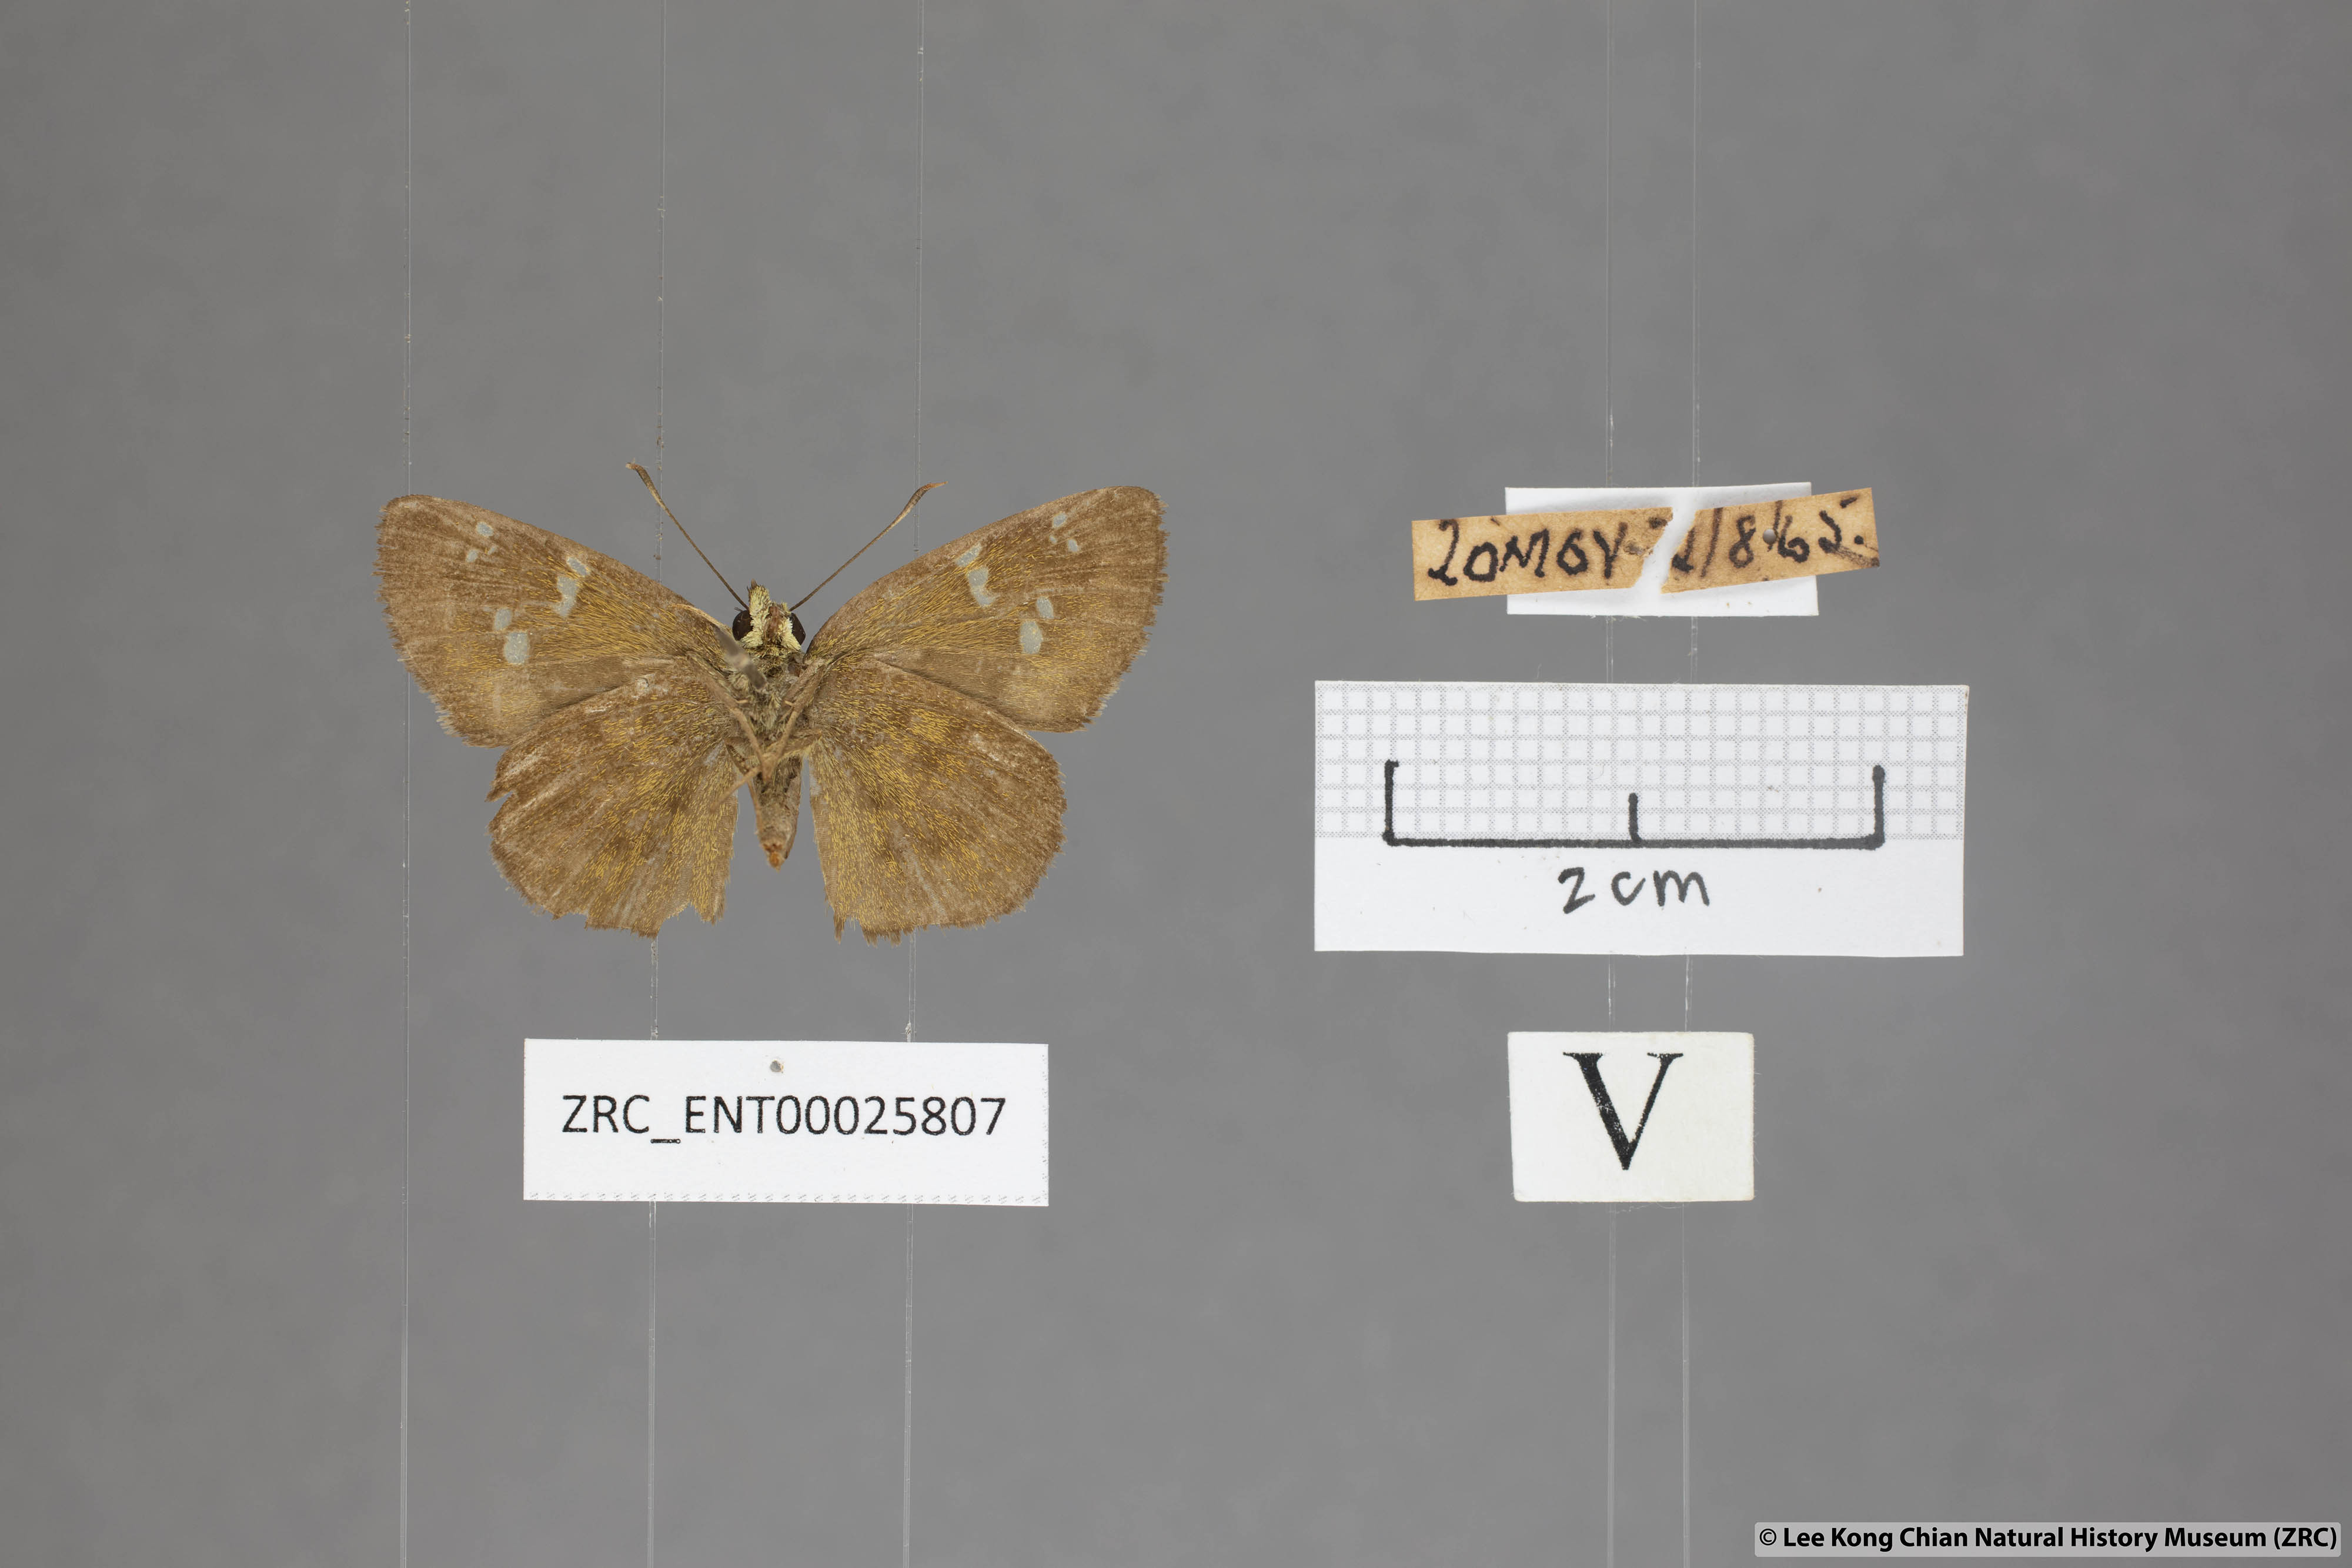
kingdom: Animalia
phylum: Arthropoda
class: Insecta
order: Lepidoptera
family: Hesperiidae
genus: Pseudocoladenia
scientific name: Pseudocoladenia dan
